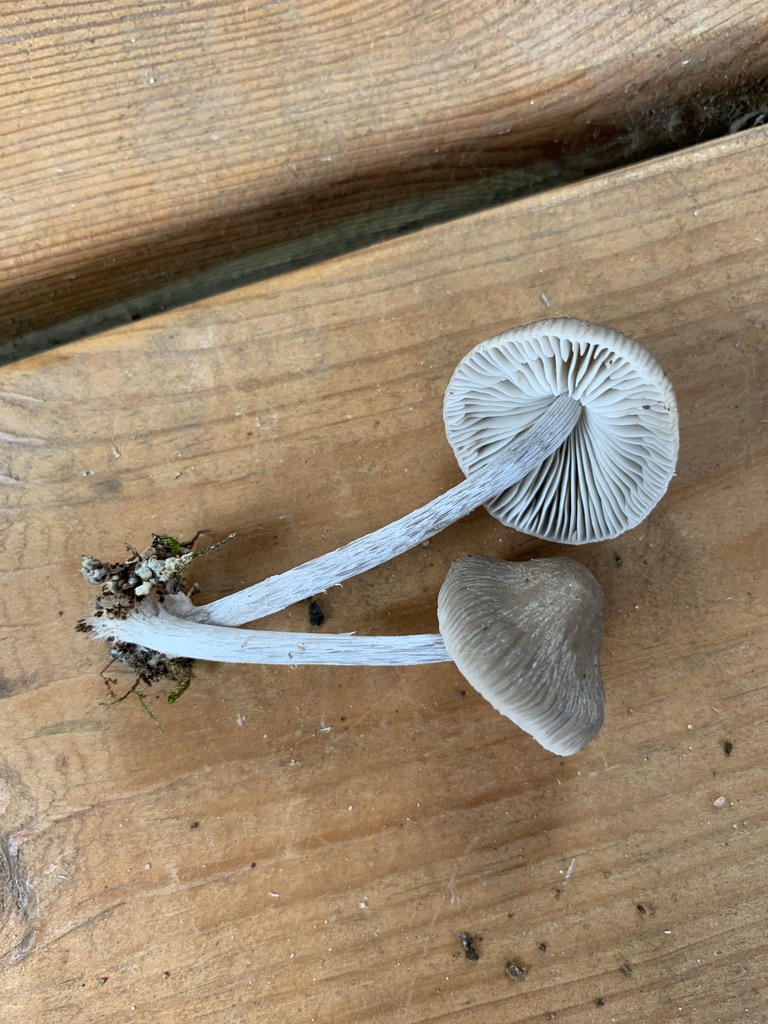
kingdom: Fungi
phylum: Basidiomycota
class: Agaricomycetes
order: Agaricales
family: Mycenaceae
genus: Mycena
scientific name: Mycena polygramma
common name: mangestribet huesvamp
